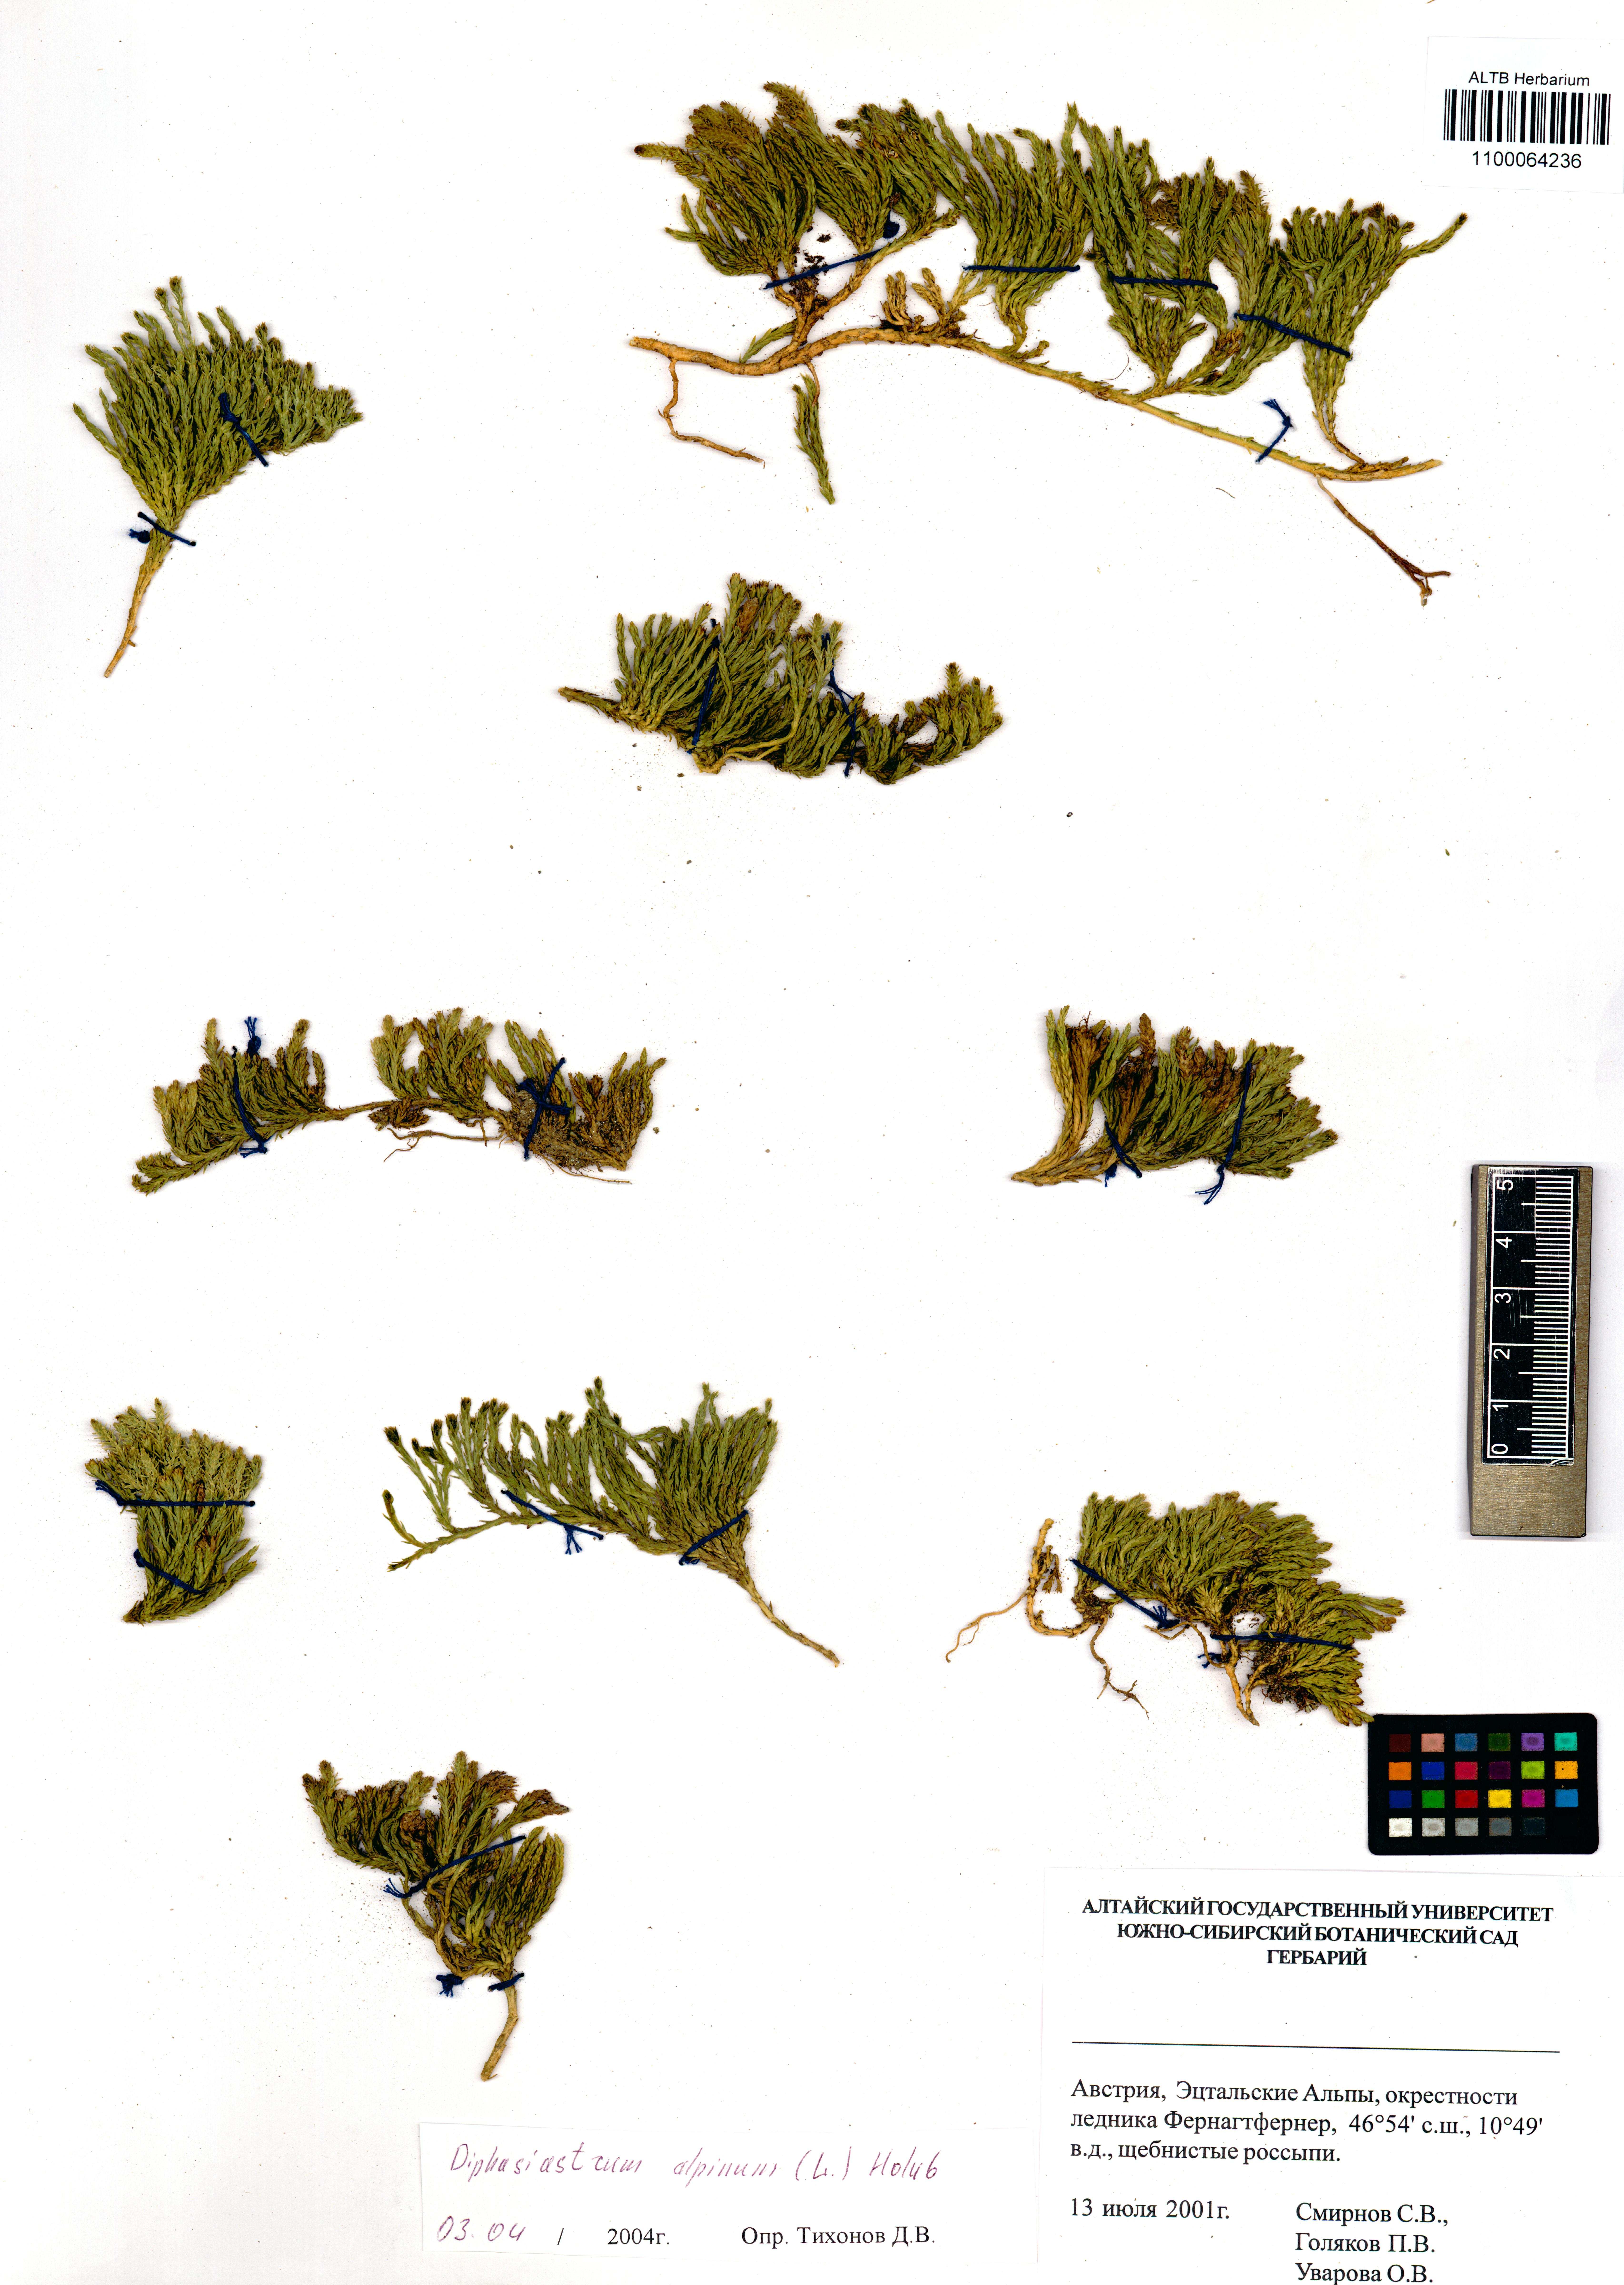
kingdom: Plantae
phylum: Tracheophyta
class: Lycopodiopsida
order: Lycopodiales
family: Lycopodiaceae
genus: Diphasiastrum
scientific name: Diphasiastrum alpinum
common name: Alpine clubmoss
